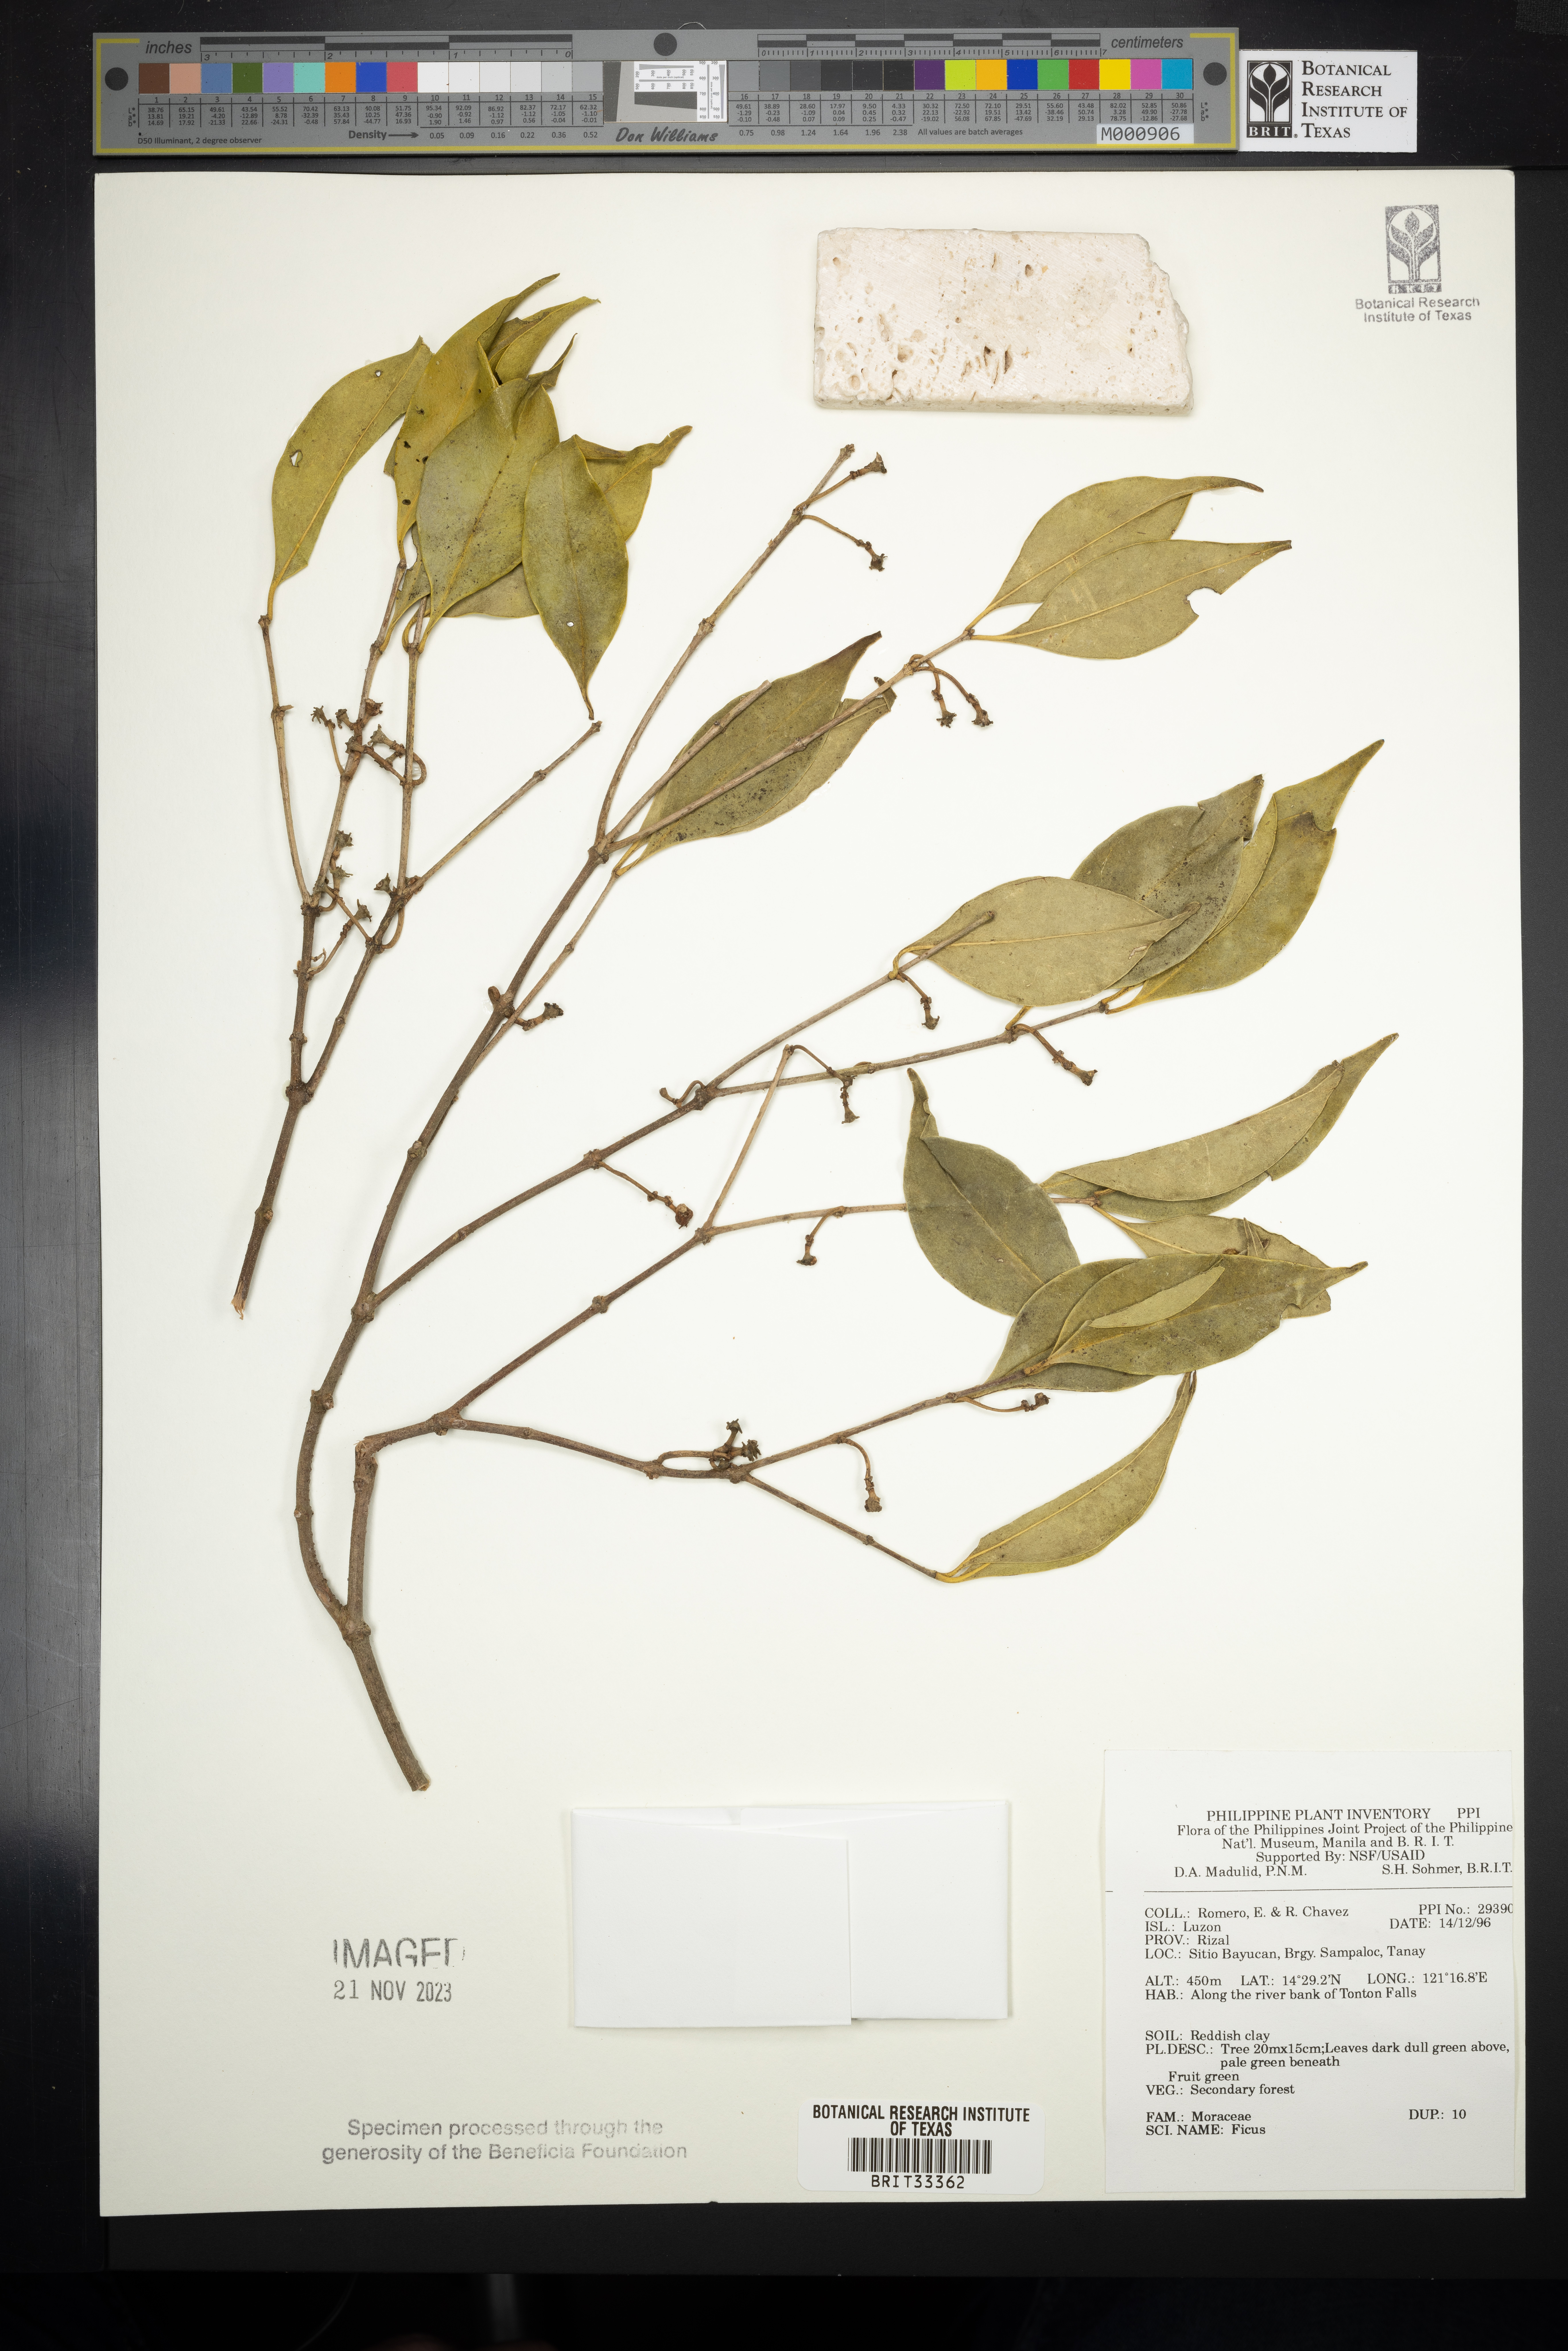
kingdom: Plantae
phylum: Tracheophyta
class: Magnoliopsida
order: Rosales
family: Moraceae
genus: Ficus
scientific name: Ficus
